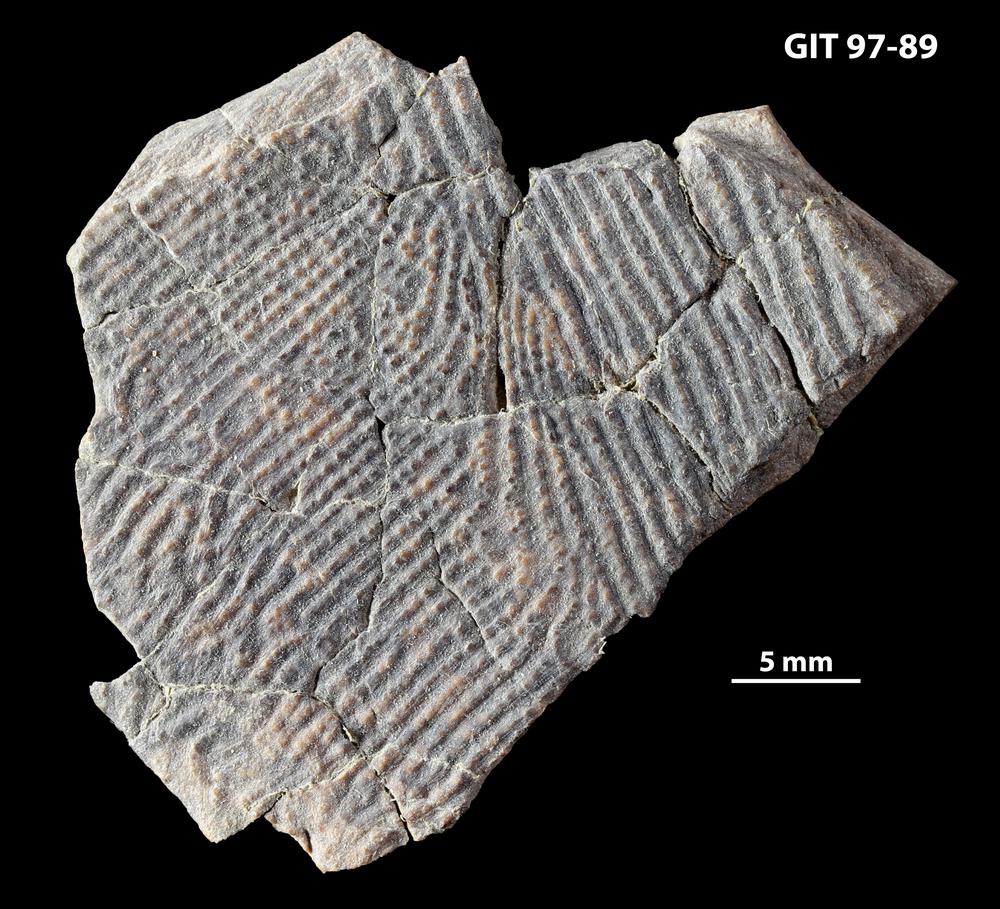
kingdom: Animalia
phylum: Chordata
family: Holonematidae
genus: Holonema
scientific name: Holonema
